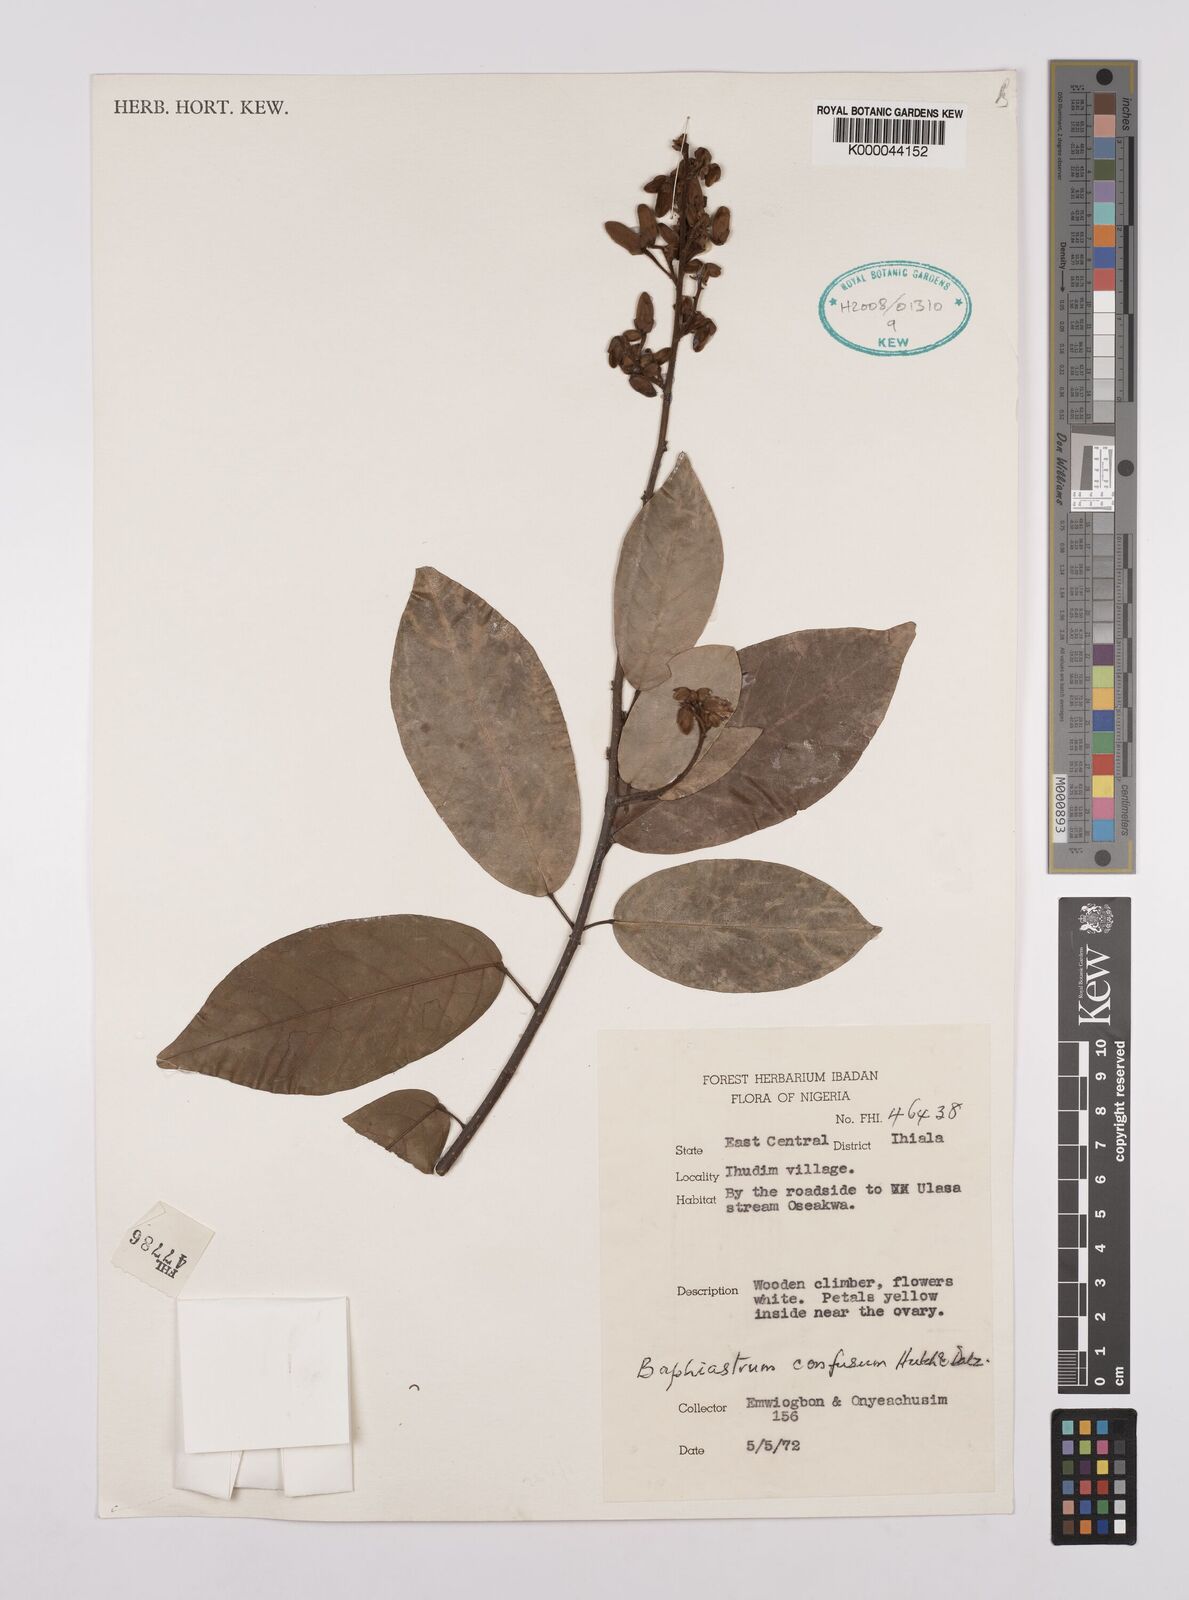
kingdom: Plantae
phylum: Tracheophyta
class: Magnoliopsida
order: Fabales
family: Fabaceae
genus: Airyantha
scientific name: Airyantha schweinfurthii
